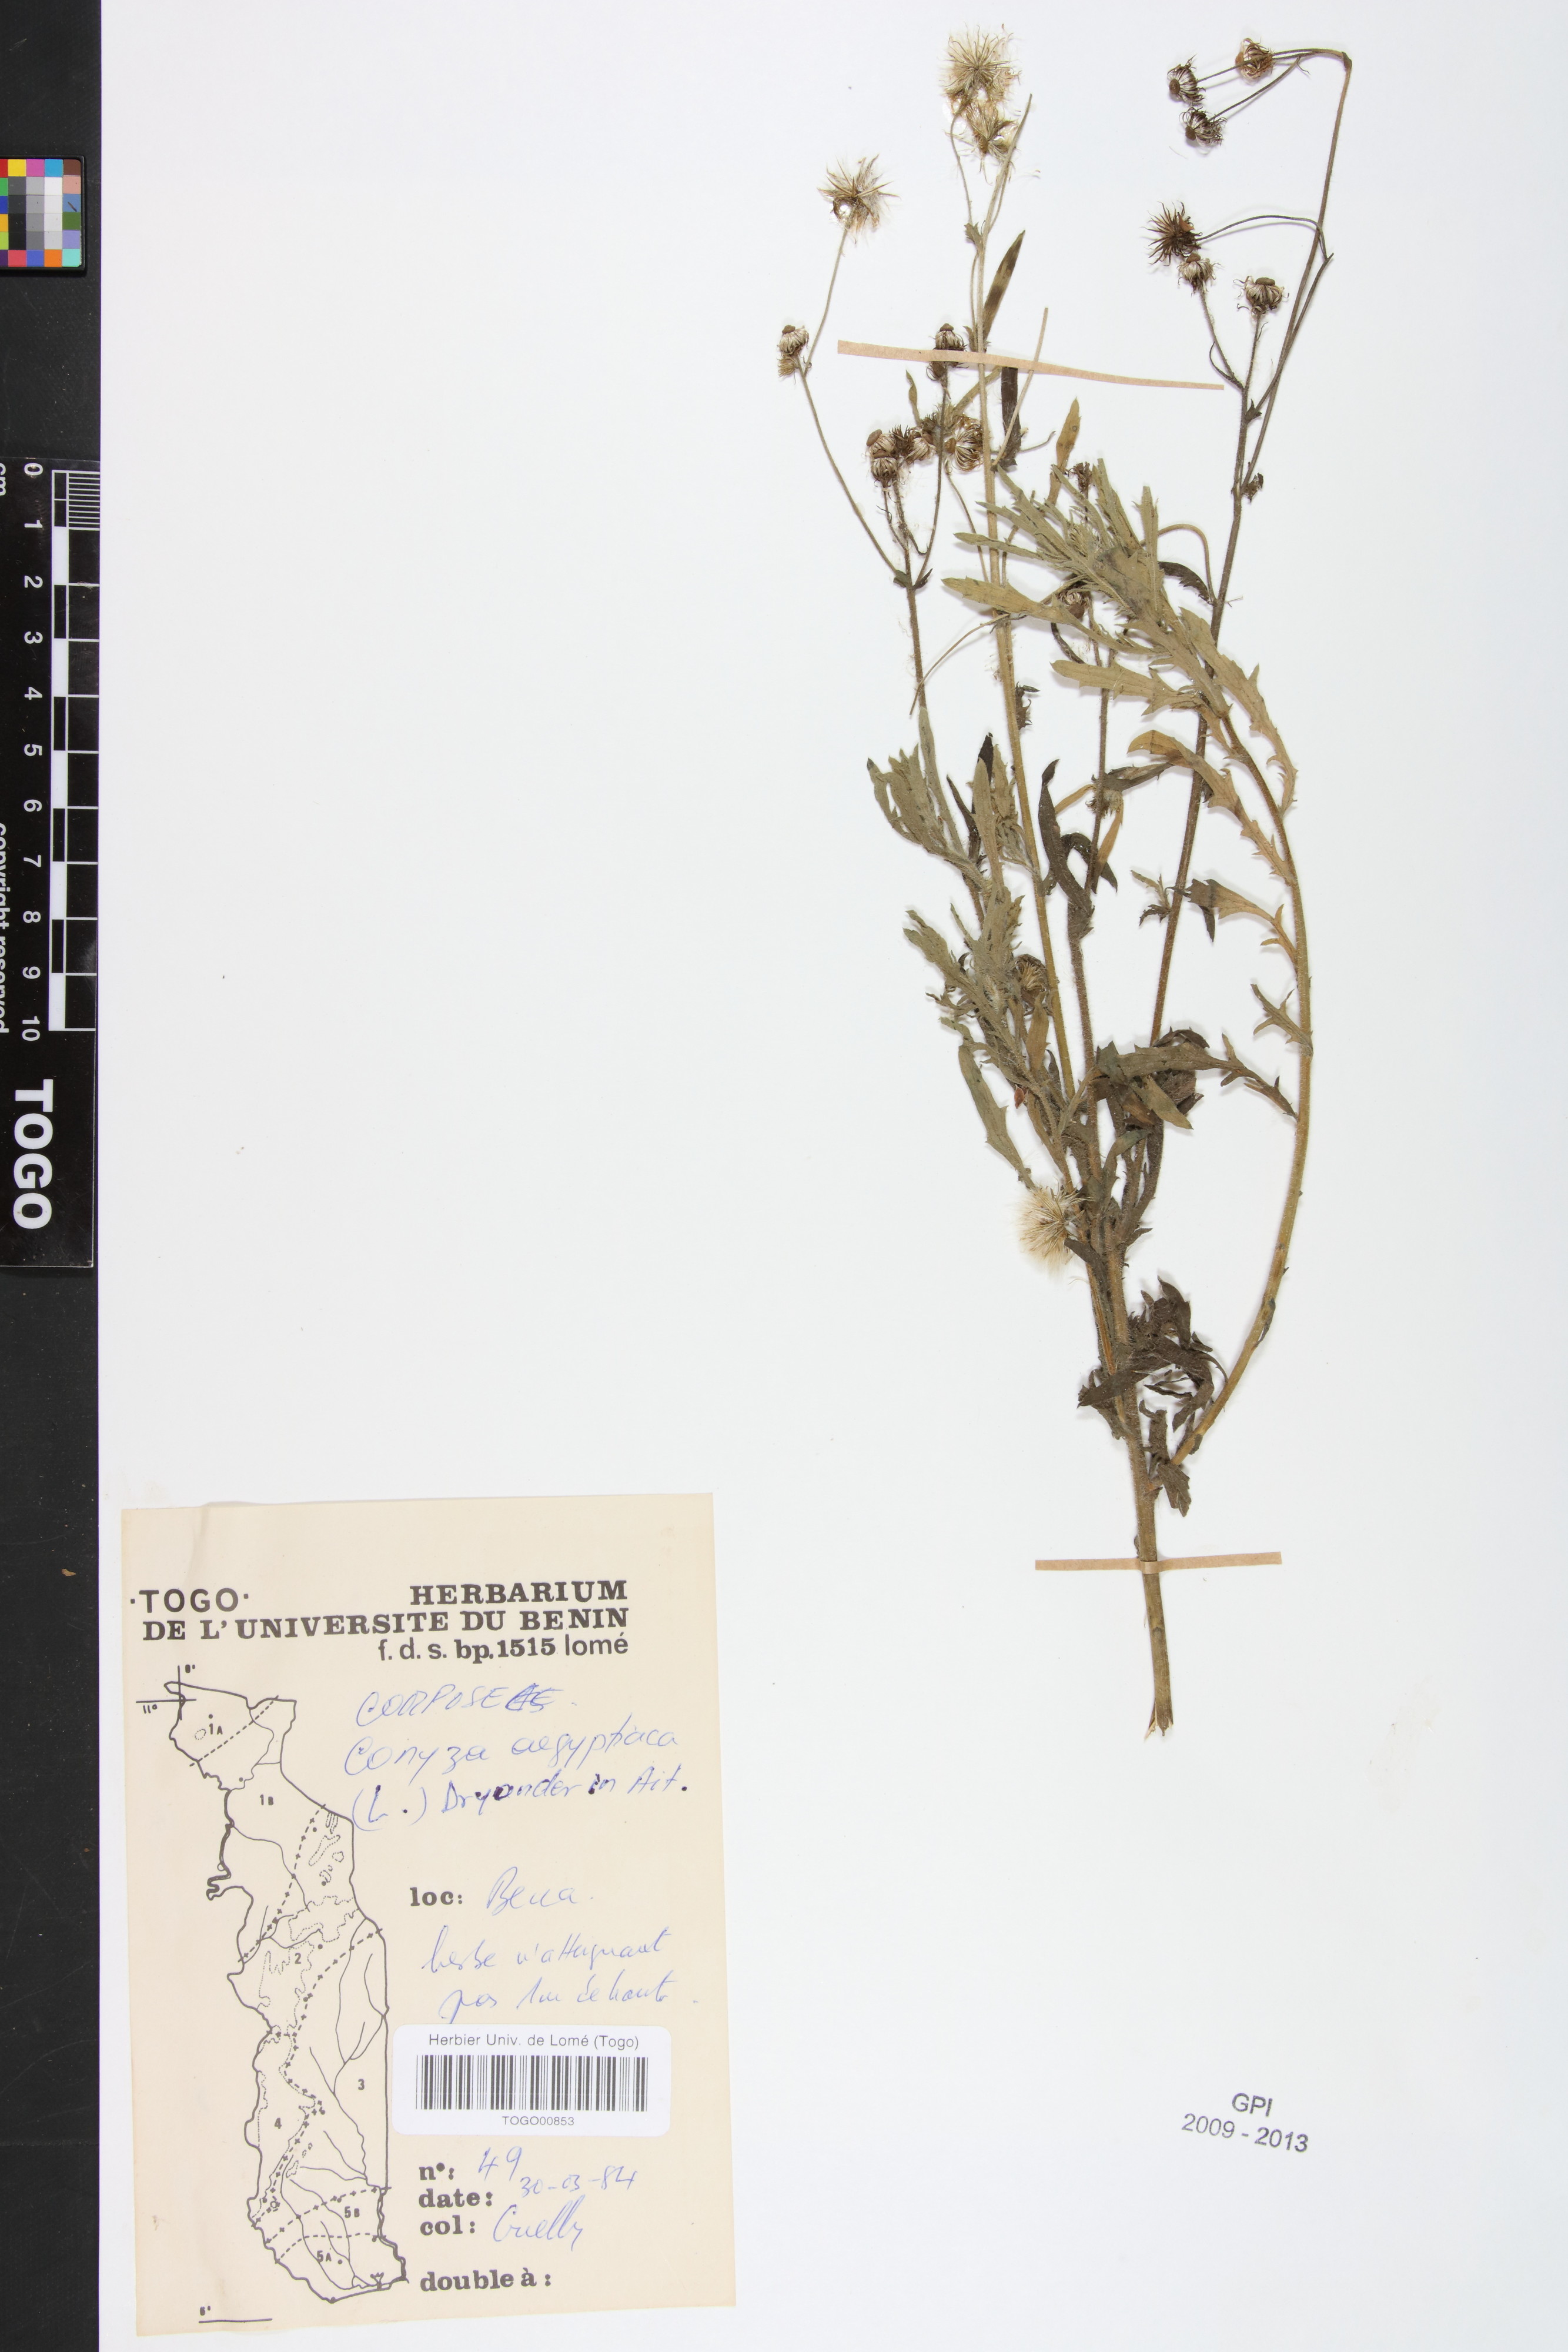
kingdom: Plantae
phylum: Tracheophyta
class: Magnoliopsida
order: Asterales
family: Asteraceae
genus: Nidorella
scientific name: Nidorella aegyptiaca
